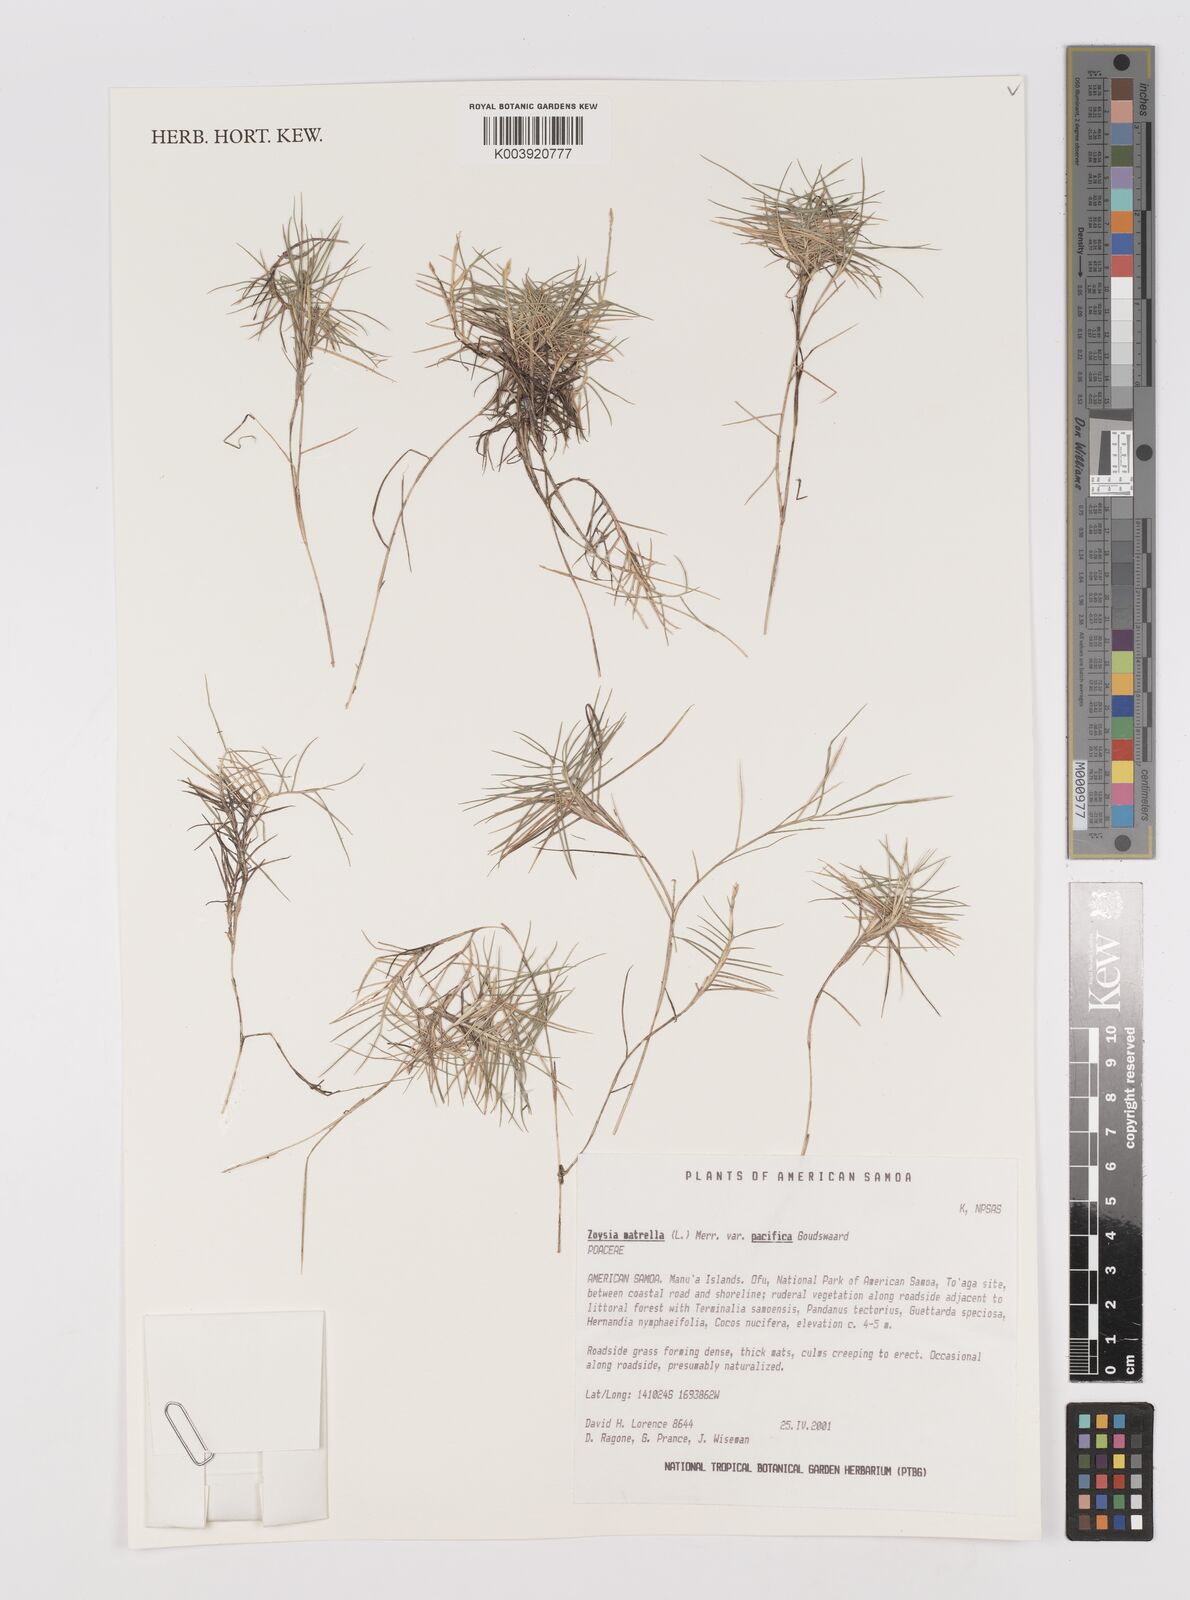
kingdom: Plantae
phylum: Tracheophyta
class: Liliopsida
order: Poales
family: Poaceae
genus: Zoysia
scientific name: Zoysia matrella
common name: Manila grass
